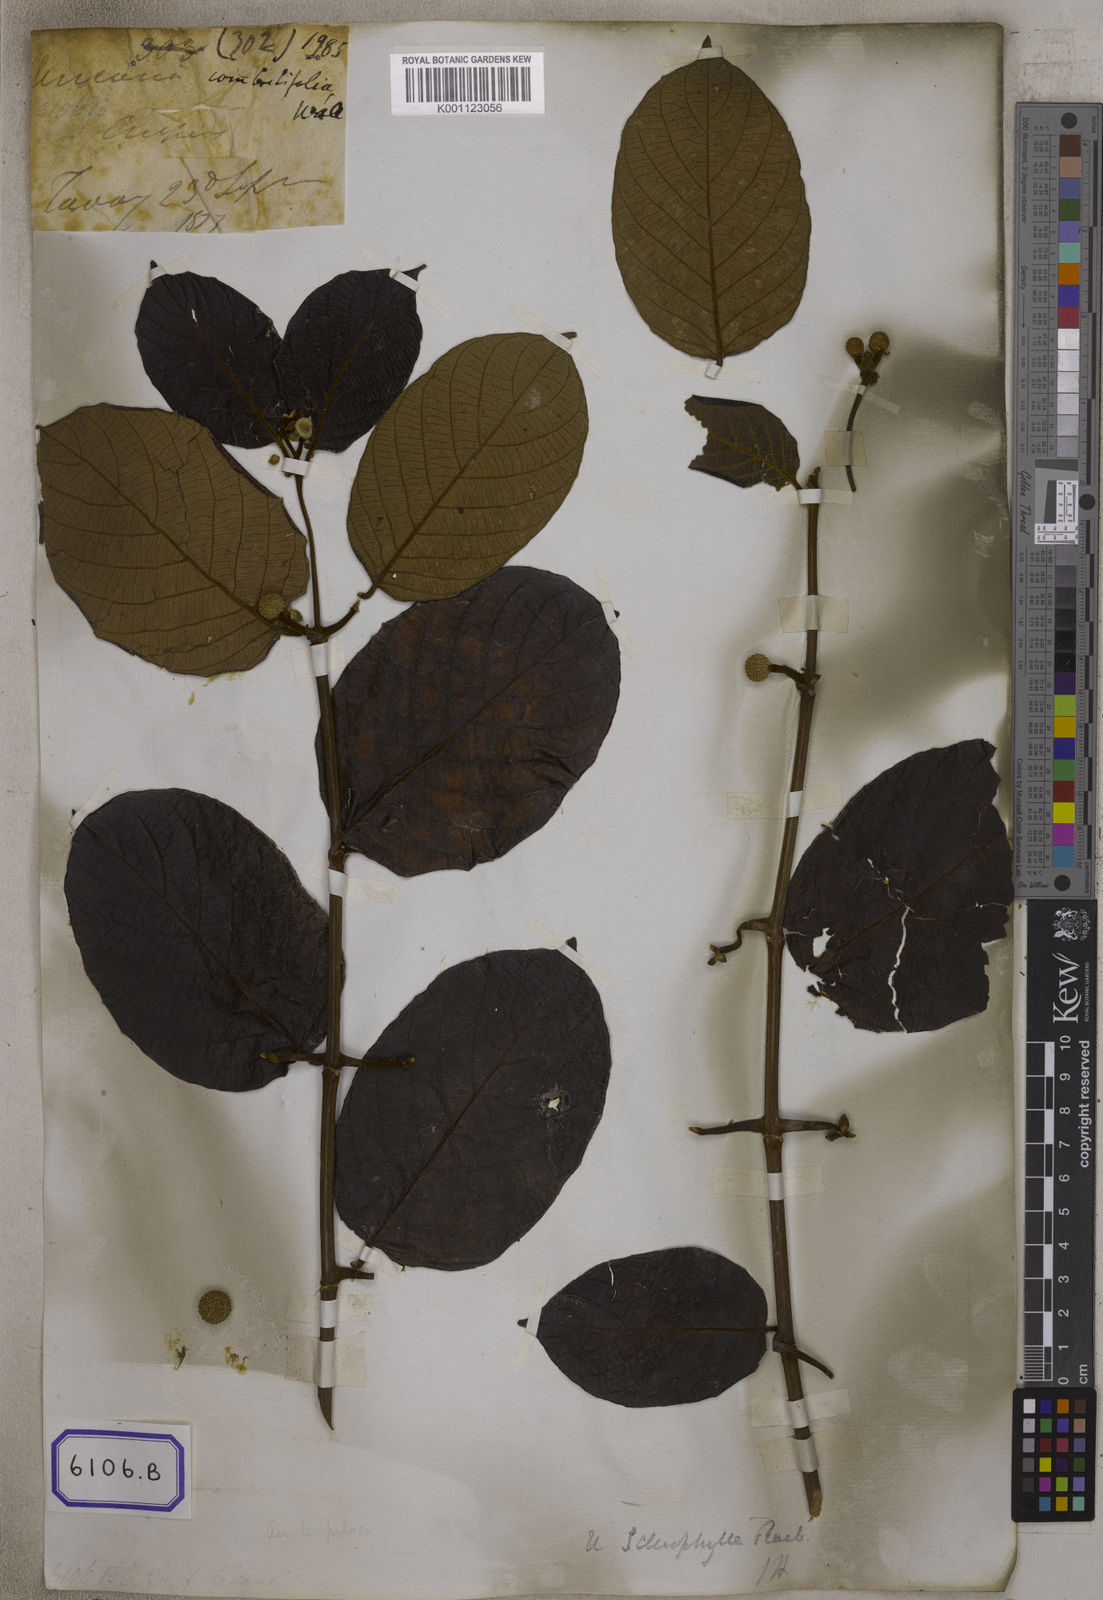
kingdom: Plantae
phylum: Tracheophyta
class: Magnoliopsida
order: Gentianales
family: Rubiaceae
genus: Uncaria
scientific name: Uncaria cordata
